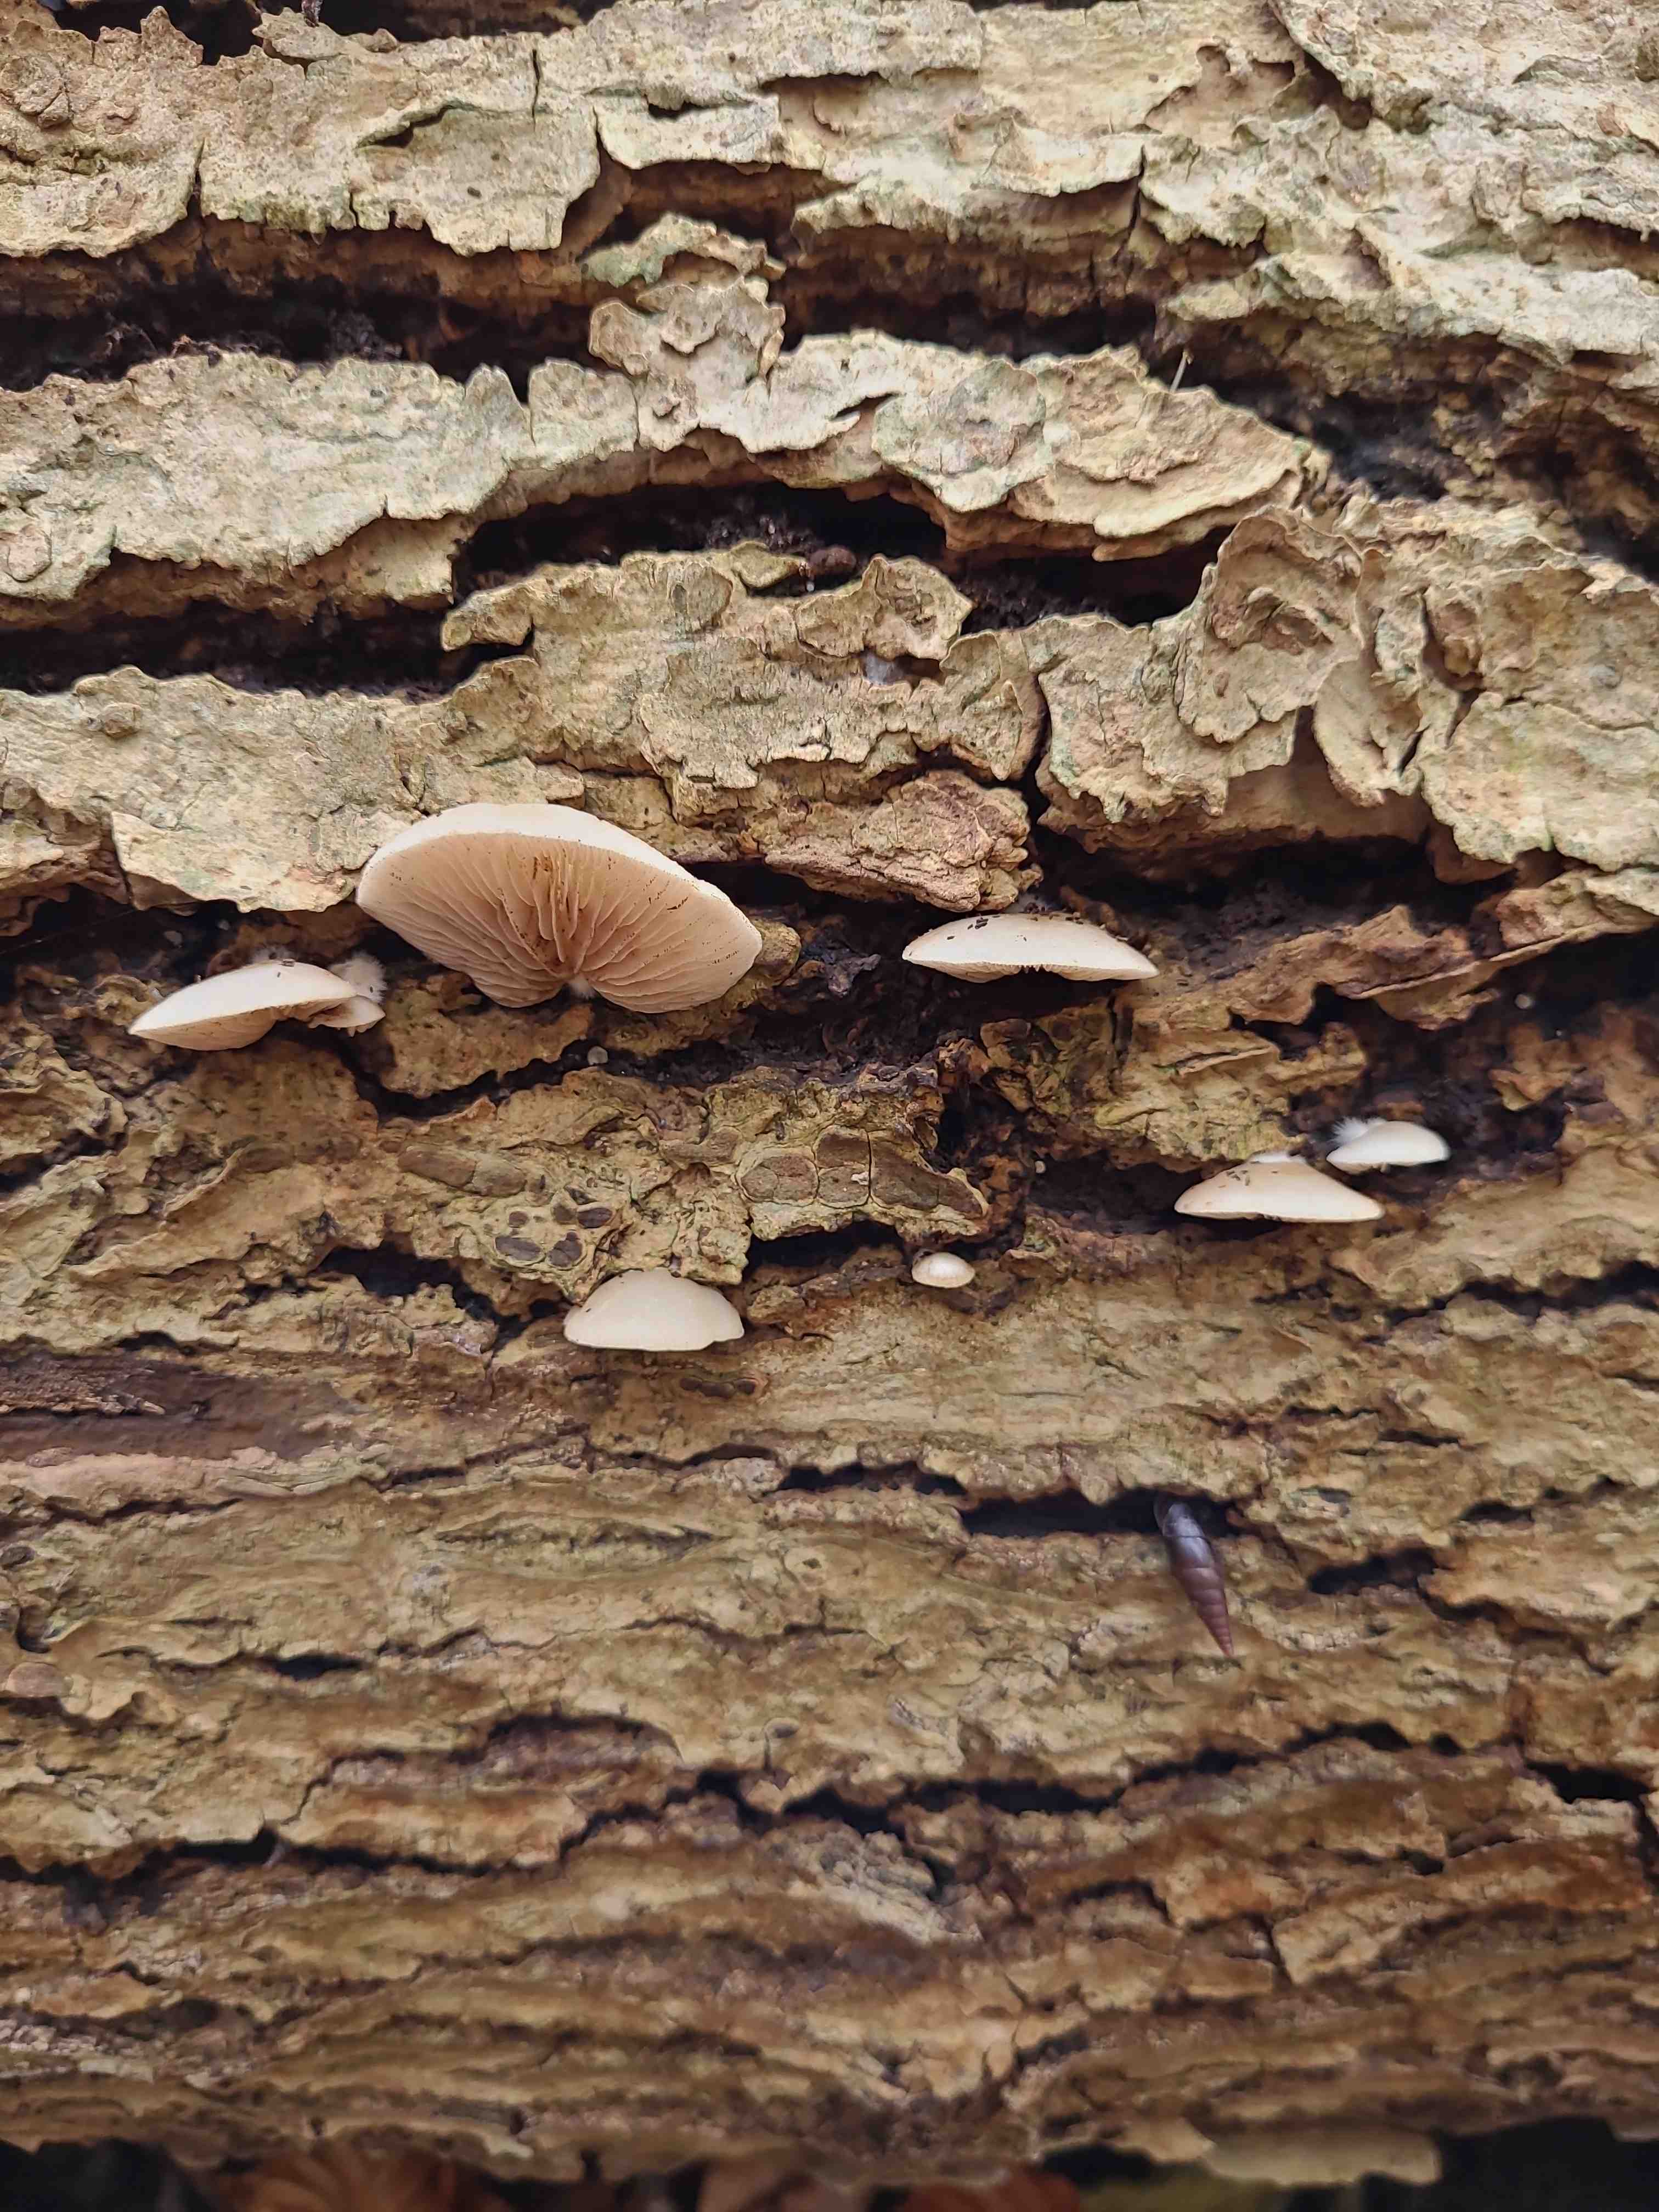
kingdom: Fungi
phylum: Basidiomycota
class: Agaricomycetes
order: Agaricales
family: Crepidotaceae
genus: Crepidotus
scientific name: Crepidotus
